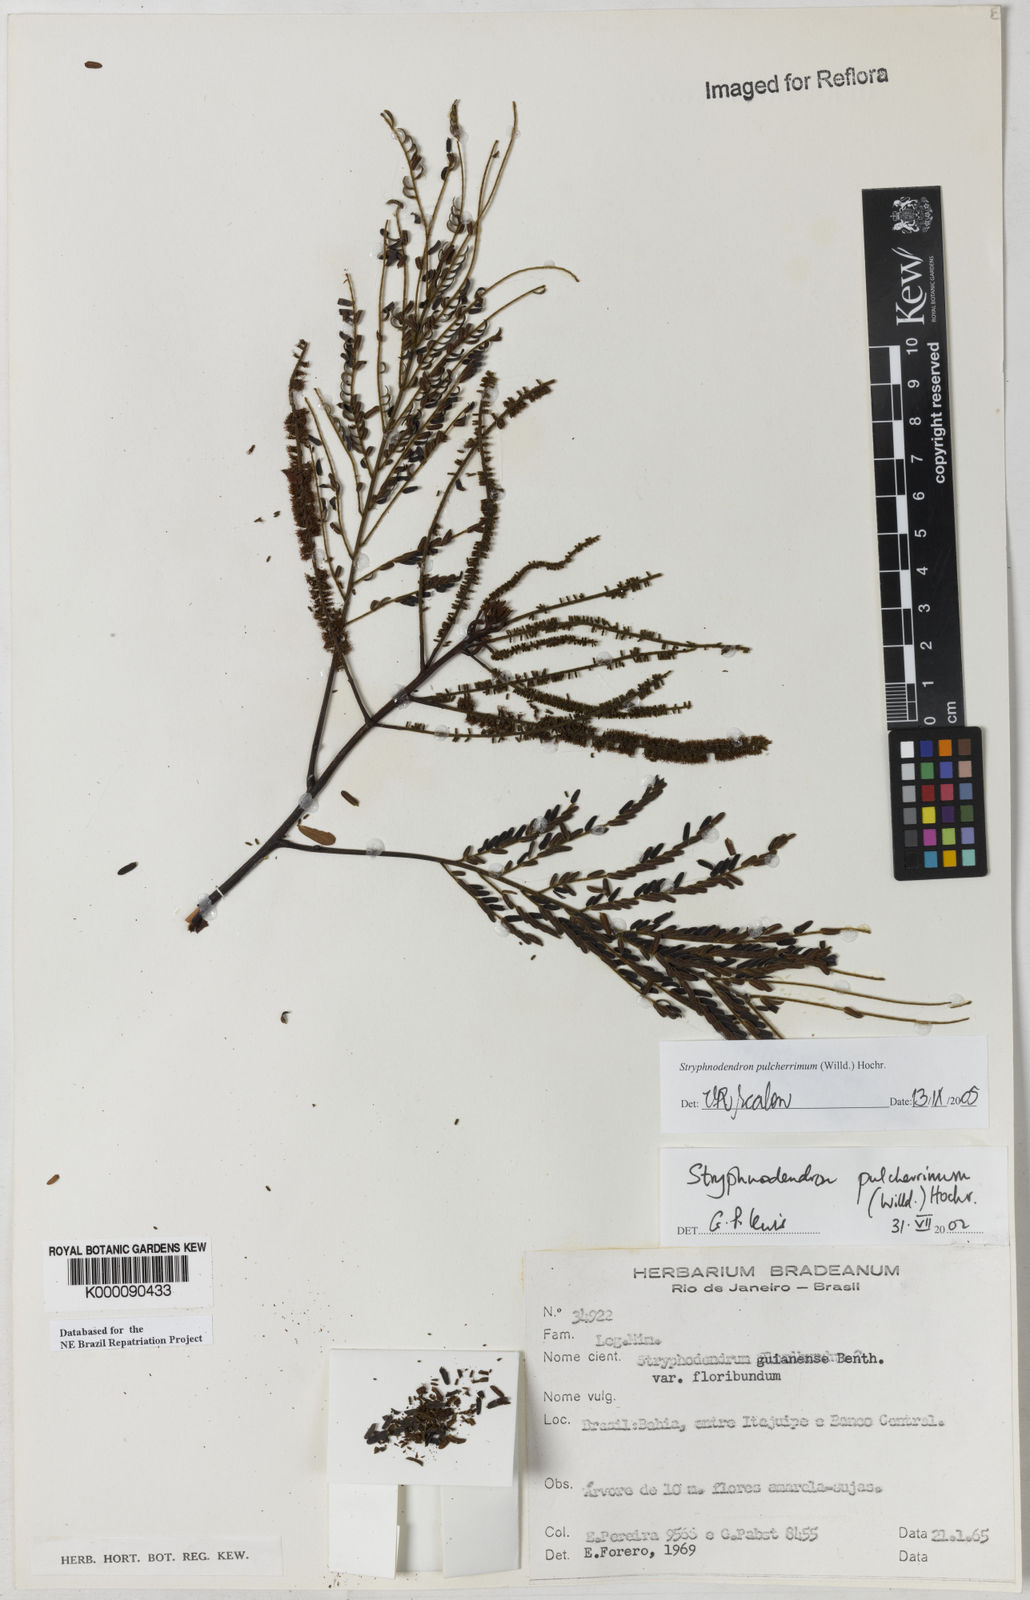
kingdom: Plantae
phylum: Tracheophyta
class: Magnoliopsida
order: Fabales
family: Fabaceae
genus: Stryphnodendron
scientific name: Stryphnodendron pulcherrimum
